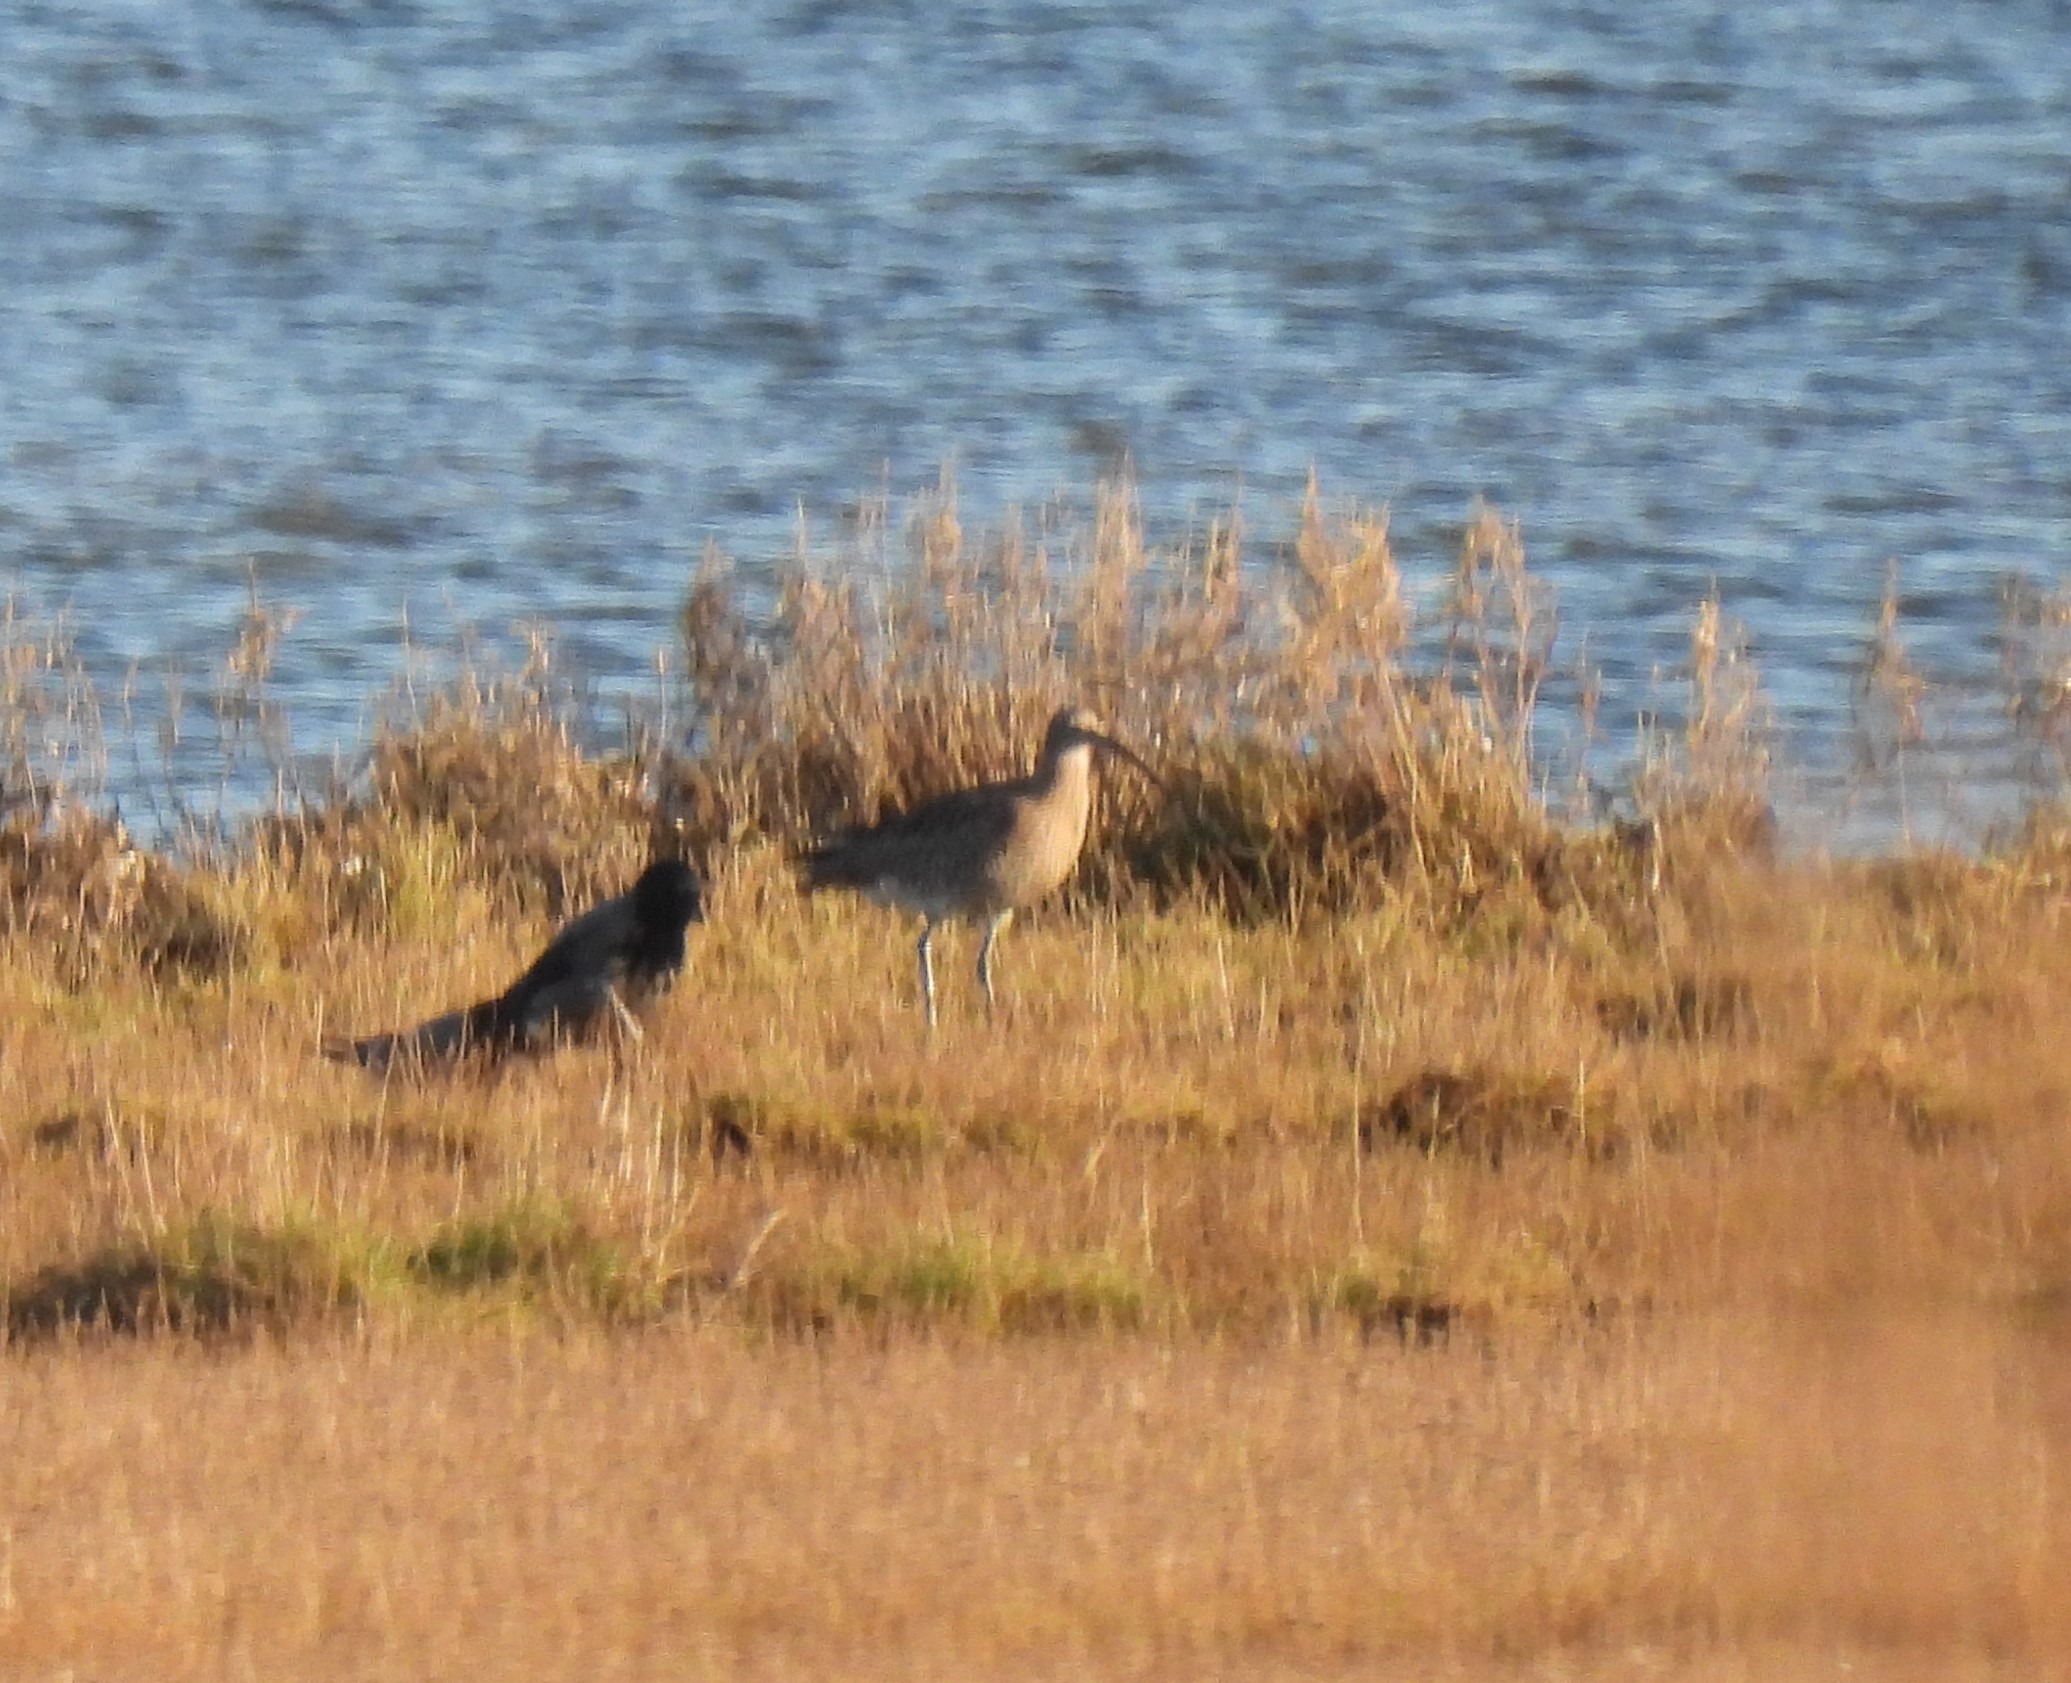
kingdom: Animalia
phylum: Chordata
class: Aves
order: Charadriiformes
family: Scolopacidae
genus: Numenius
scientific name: Numenius arquata
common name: Storspove
